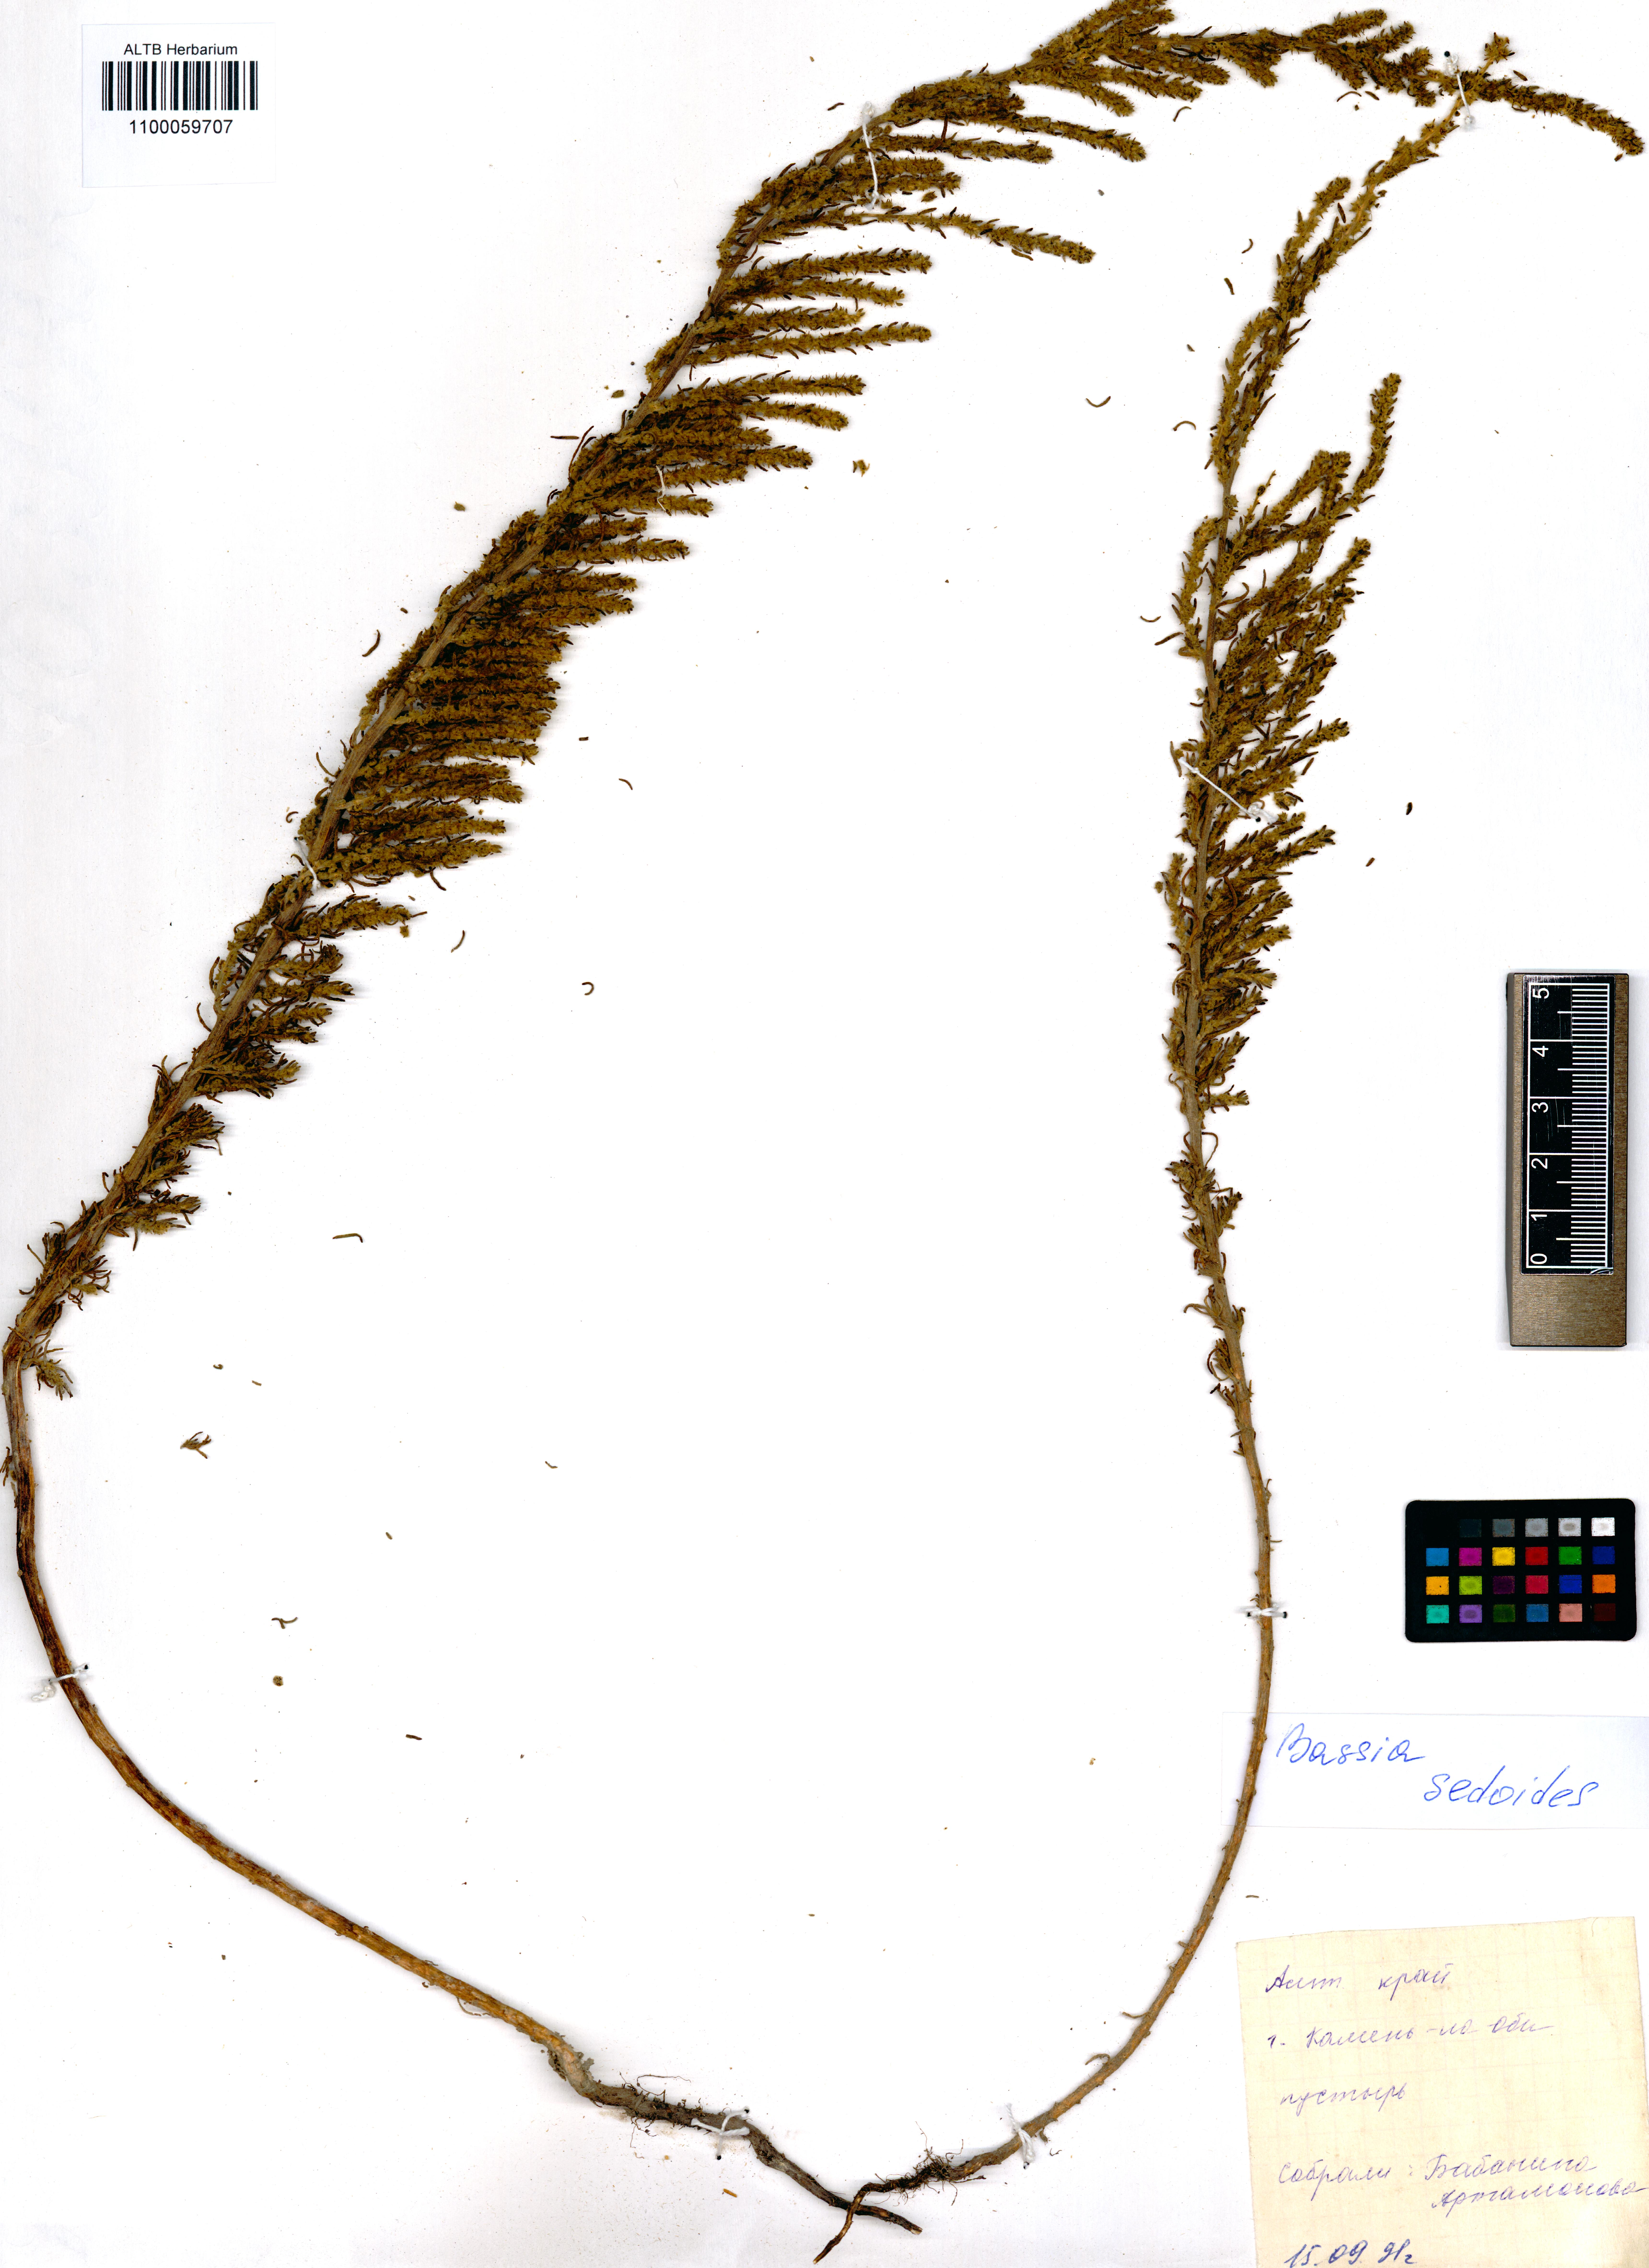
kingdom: Plantae
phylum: Tracheophyta
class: Magnoliopsida
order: Caryophyllales
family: Amaranthaceae
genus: Sedobassia
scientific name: Sedobassia sedoides
